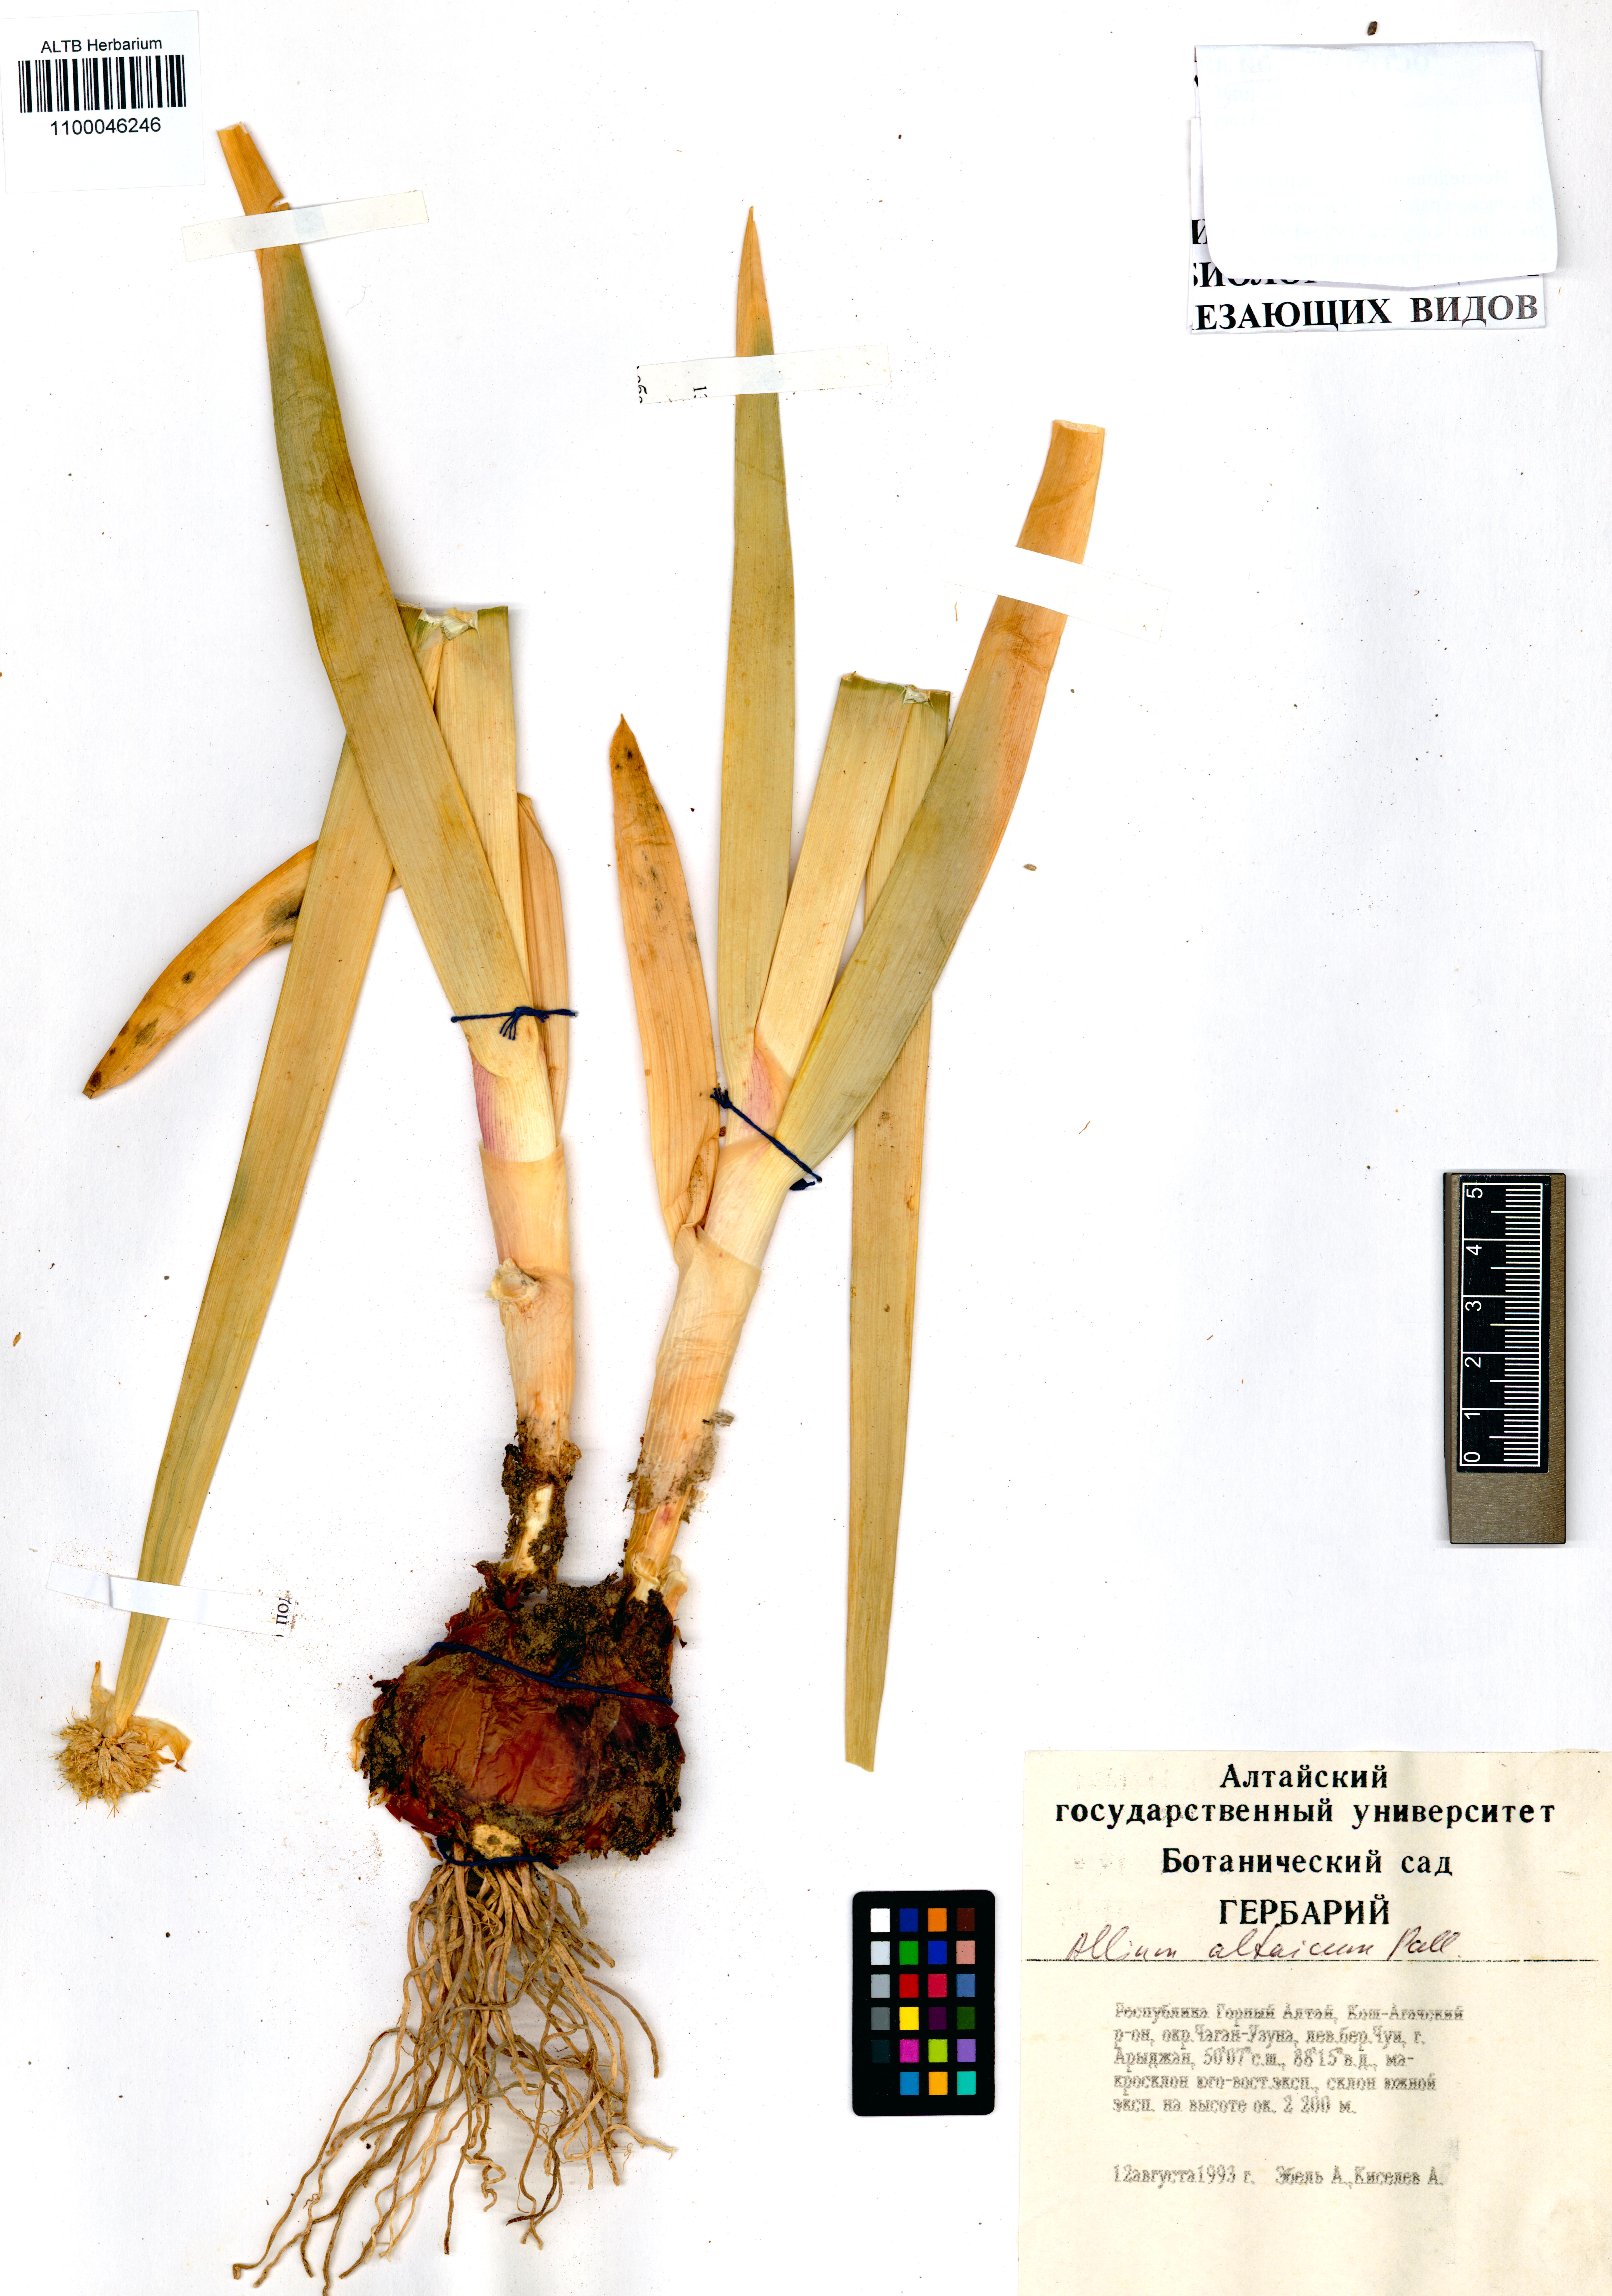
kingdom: Plantae
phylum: Tracheophyta
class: Liliopsida
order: Asparagales
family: Amaryllidaceae
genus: Allium
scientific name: Allium altaicum
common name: Altai onion
